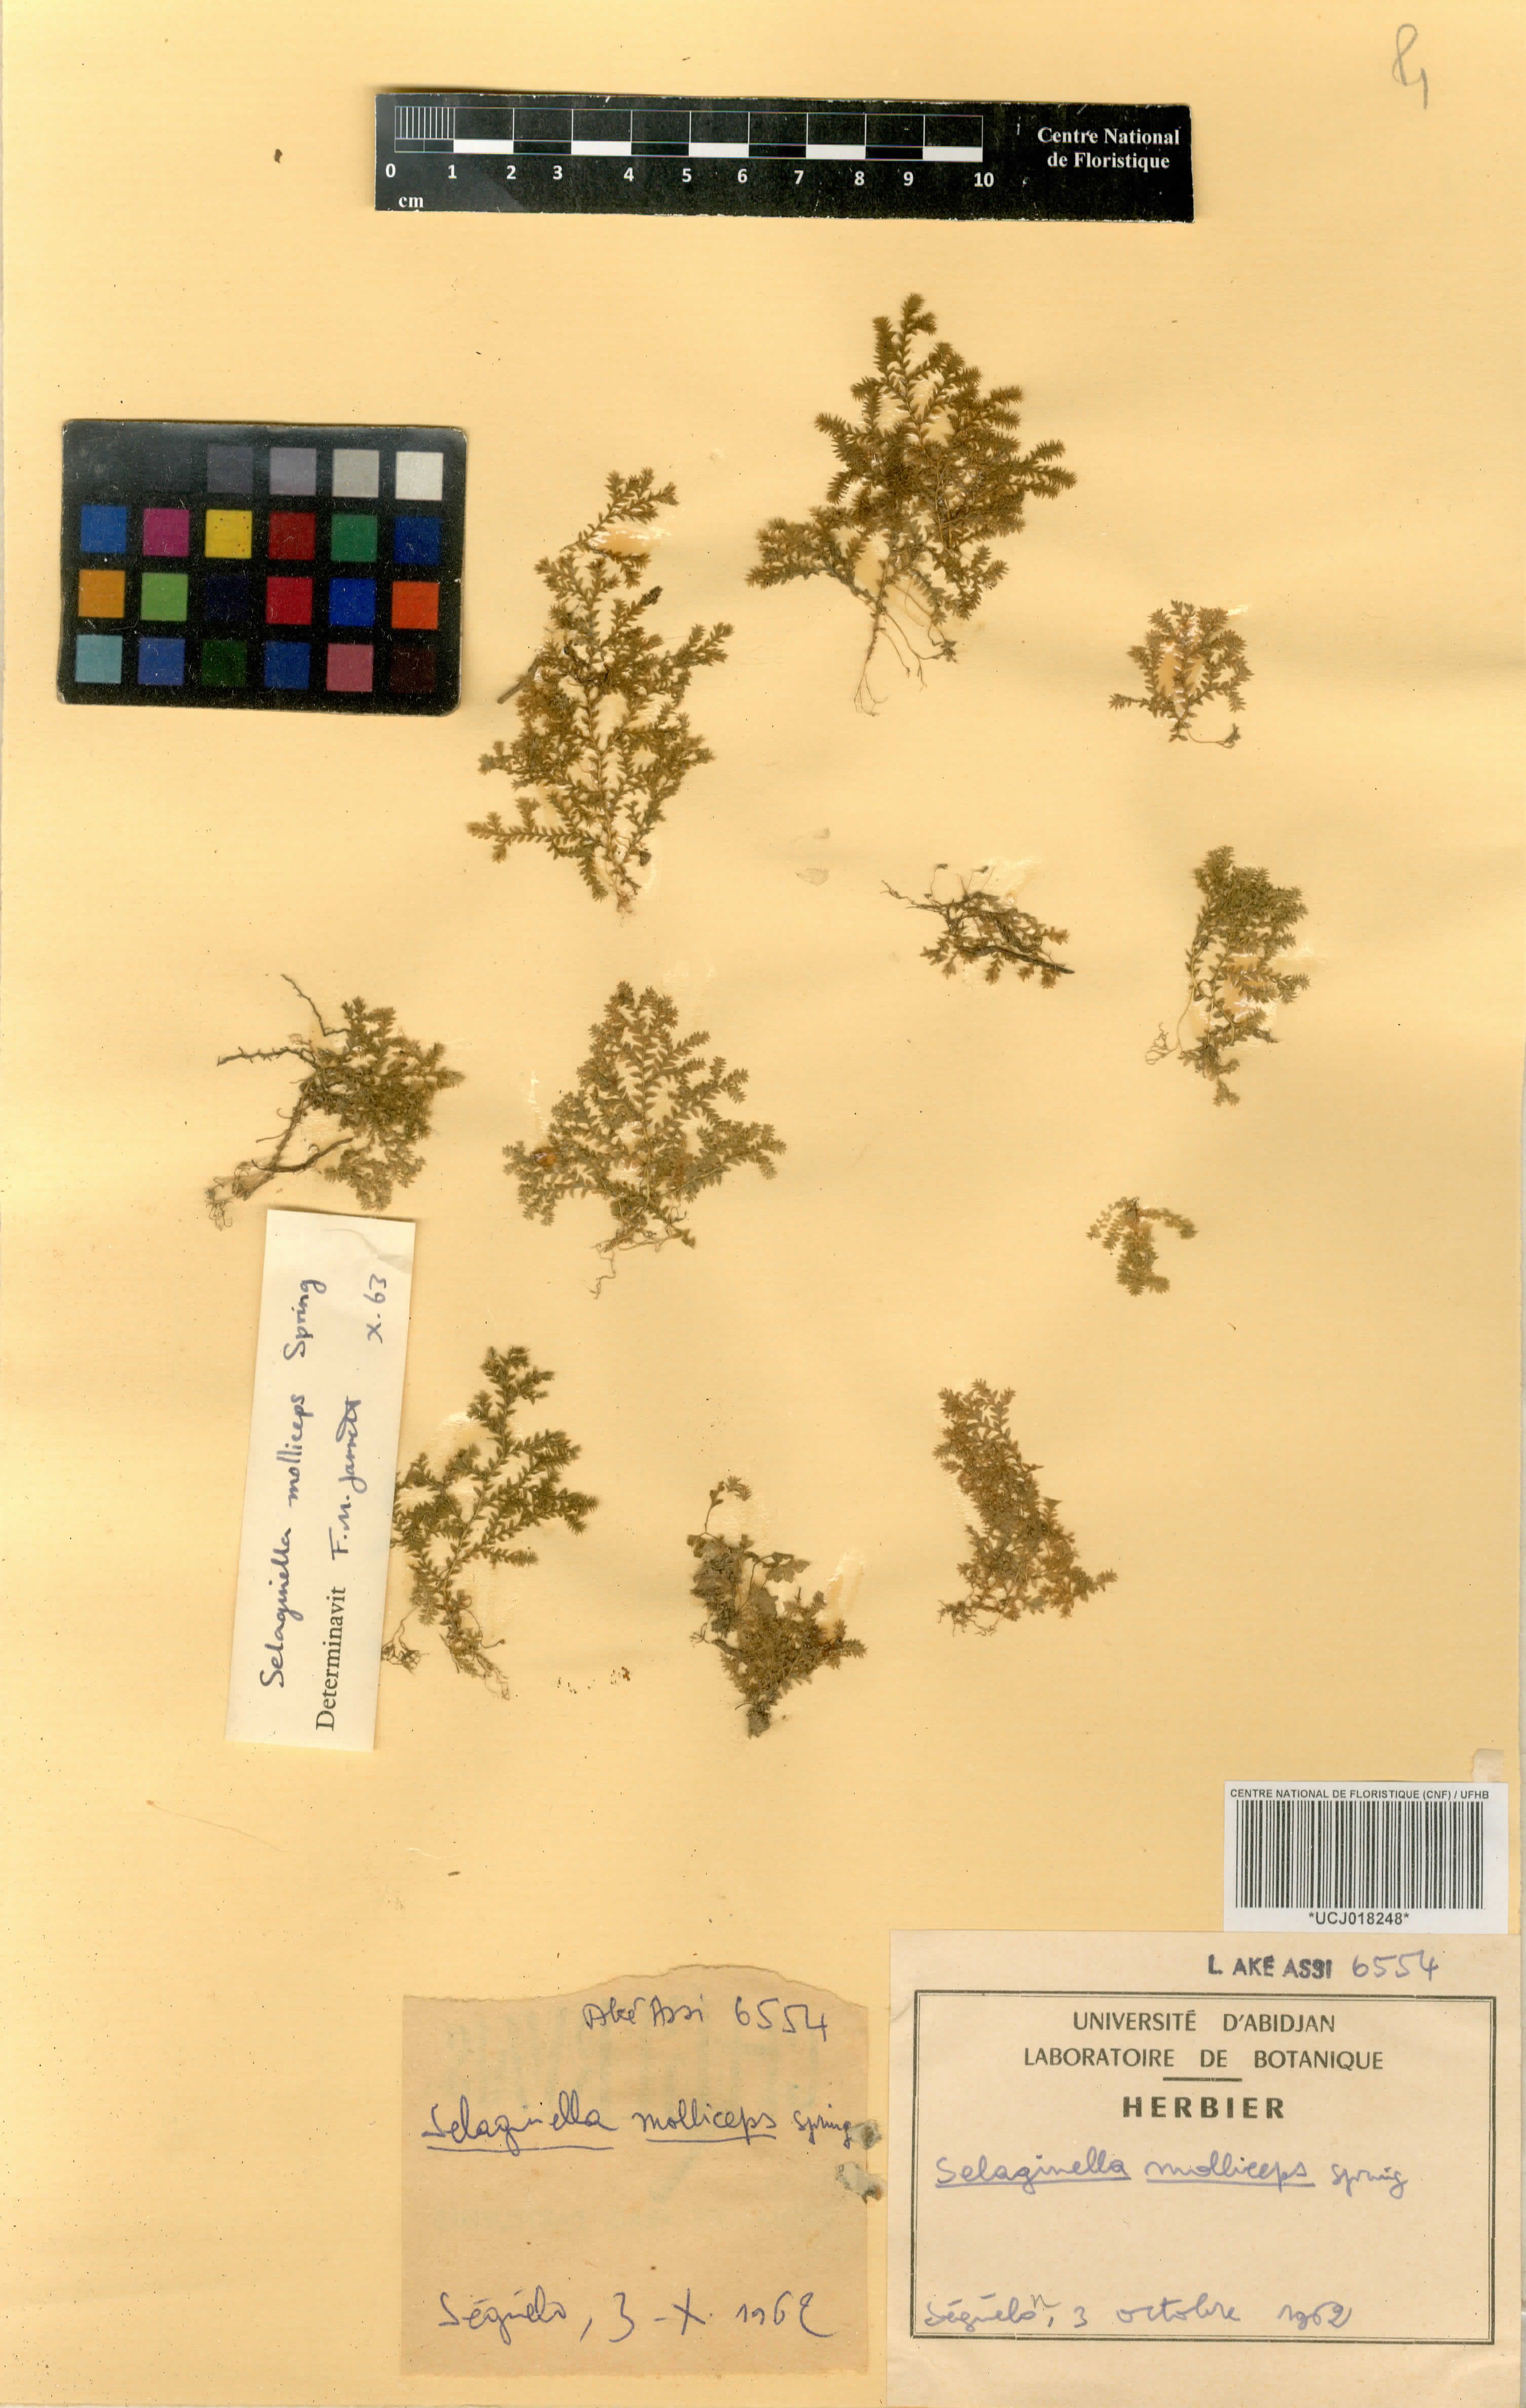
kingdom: Plantae
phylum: Tracheophyta
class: Lycopodiopsida
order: Selaginellales
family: Selaginellaceae
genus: Selaginella
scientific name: Selaginella molliceps
